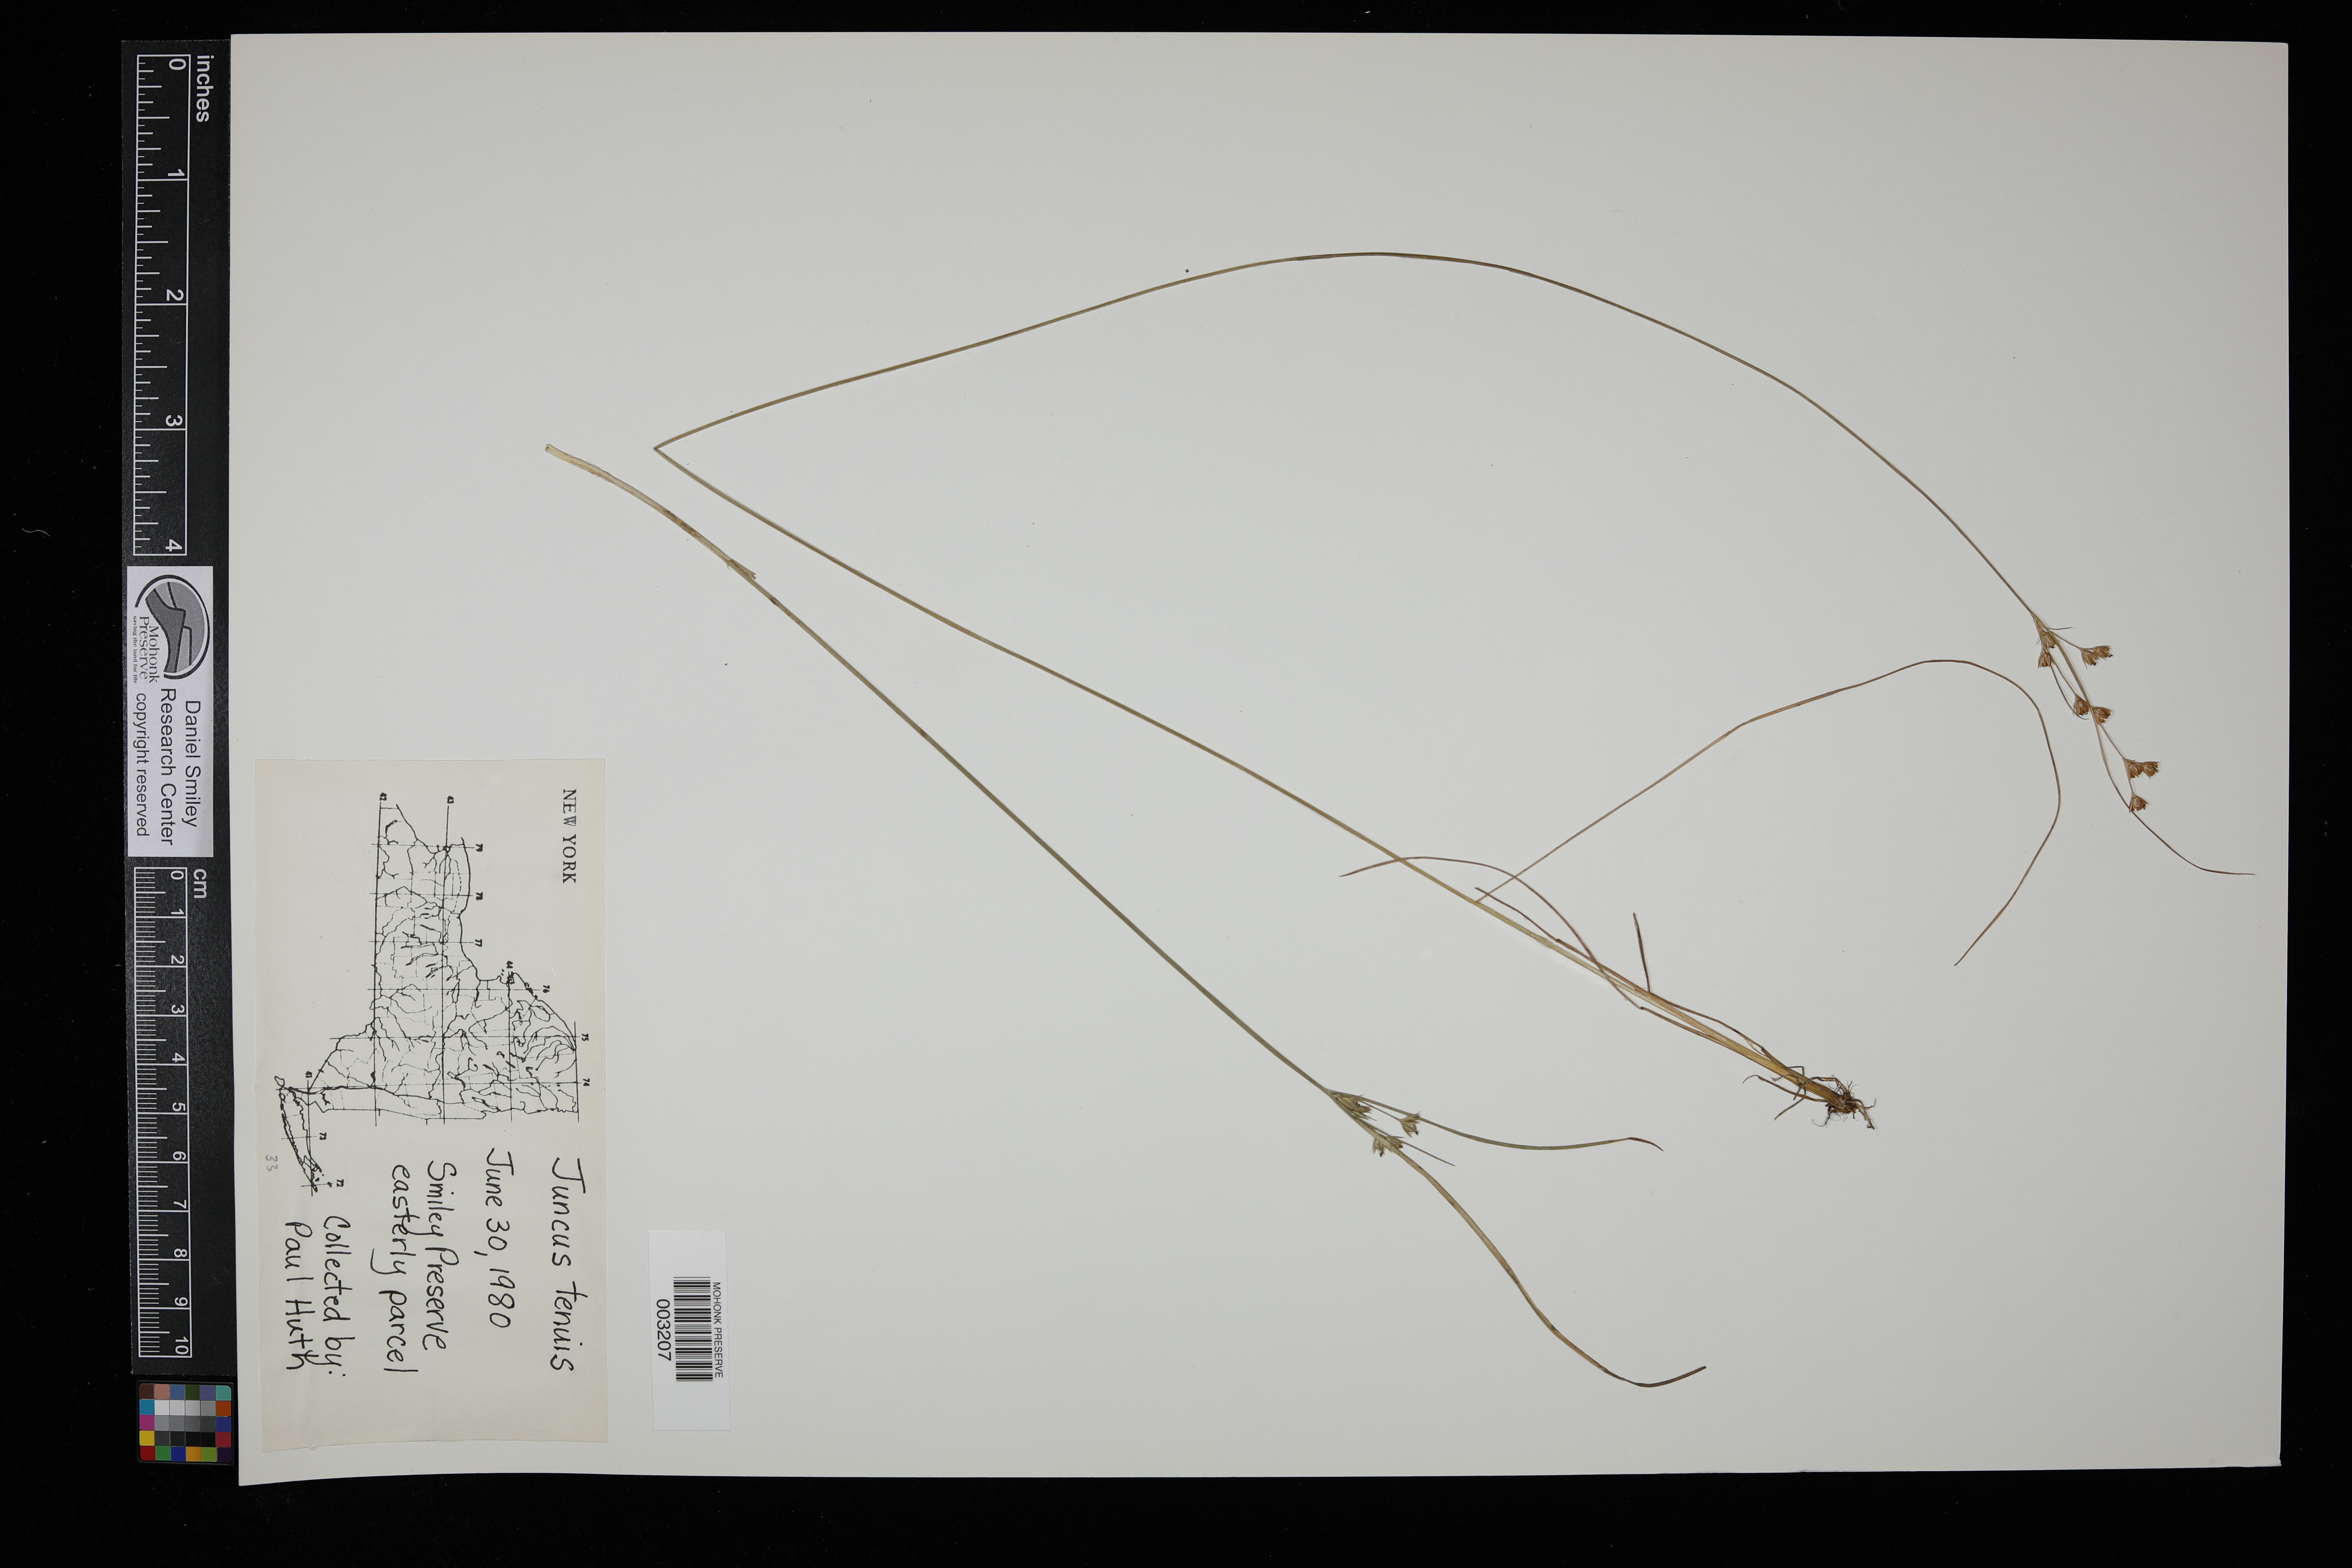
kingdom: Plantae
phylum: Tracheophyta
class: Liliopsida
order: Poales
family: Juncaceae
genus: Juncus
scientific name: Juncus tenuis
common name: Slender rush
